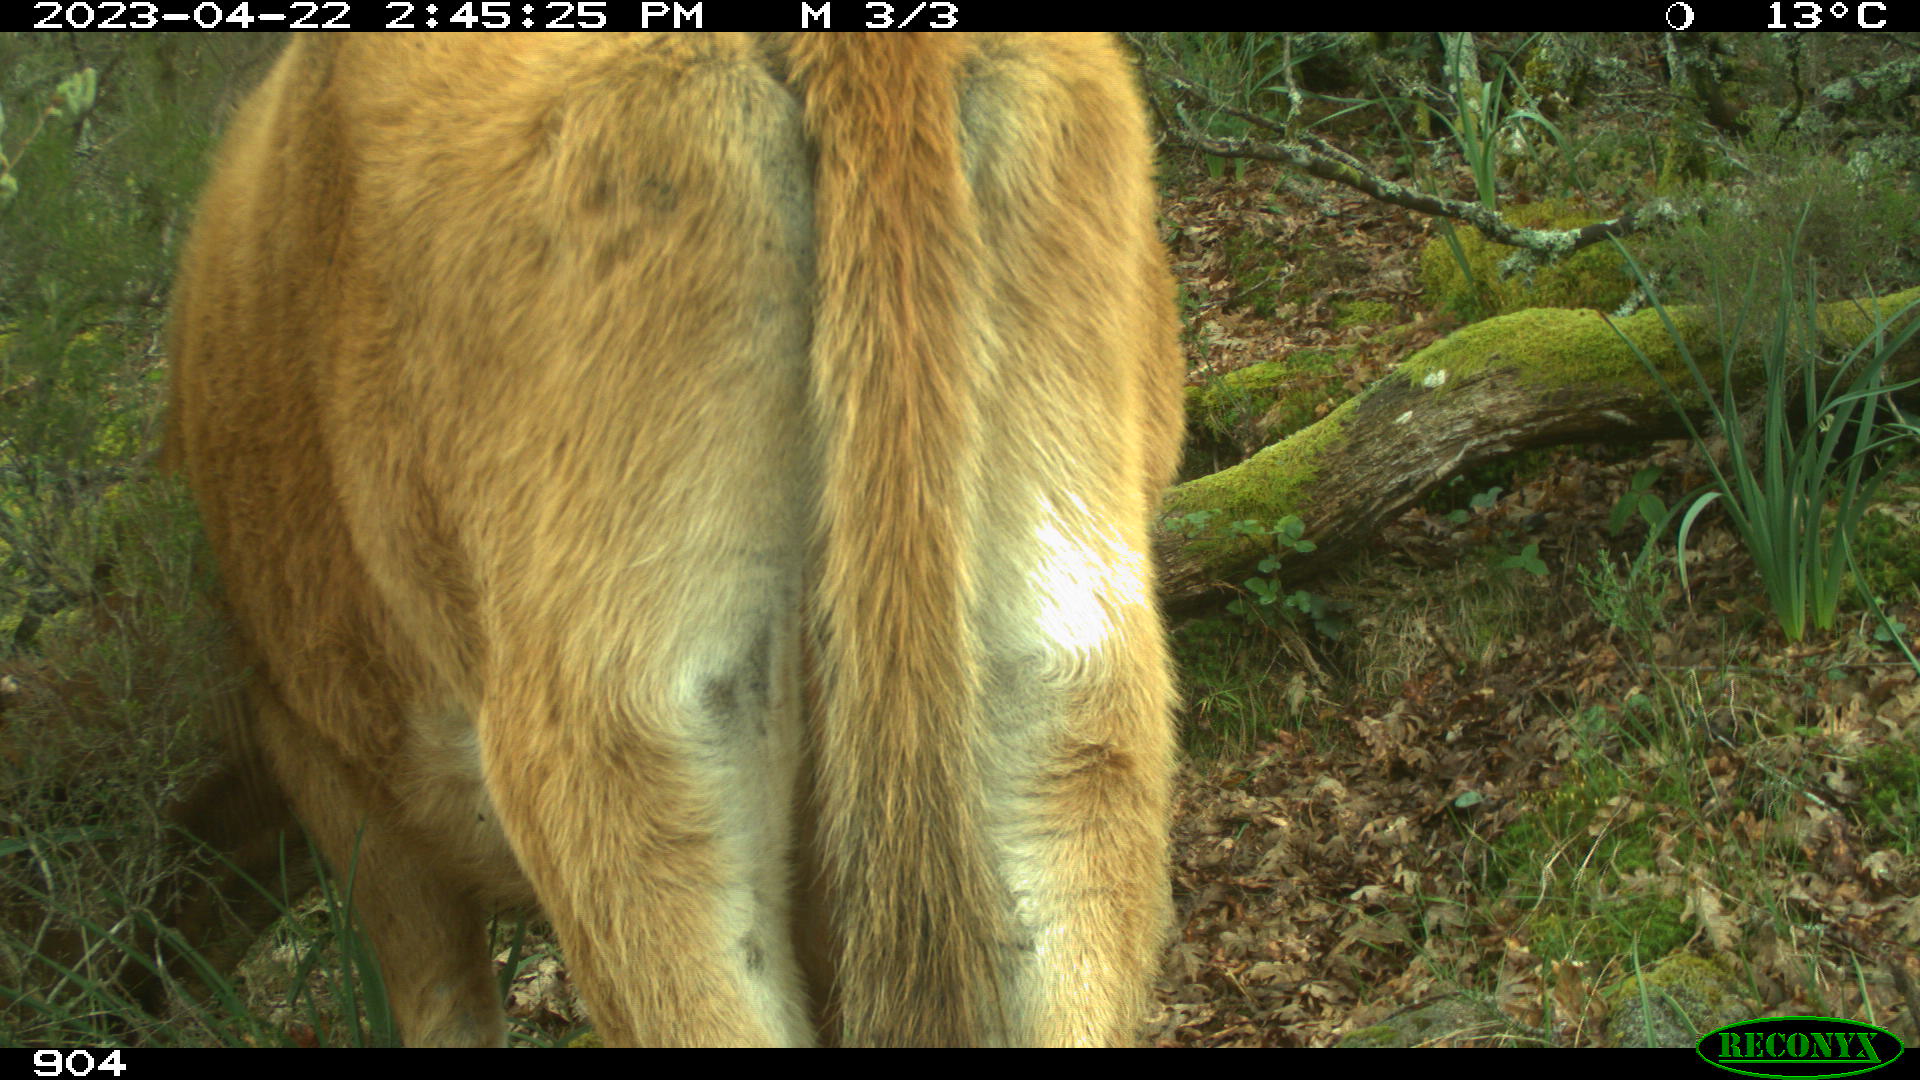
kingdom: Animalia
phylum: Chordata
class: Mammalia
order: Artiodactyla
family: Bovidae
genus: Bos
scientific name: Bos taurus
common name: Domesticated cattle
